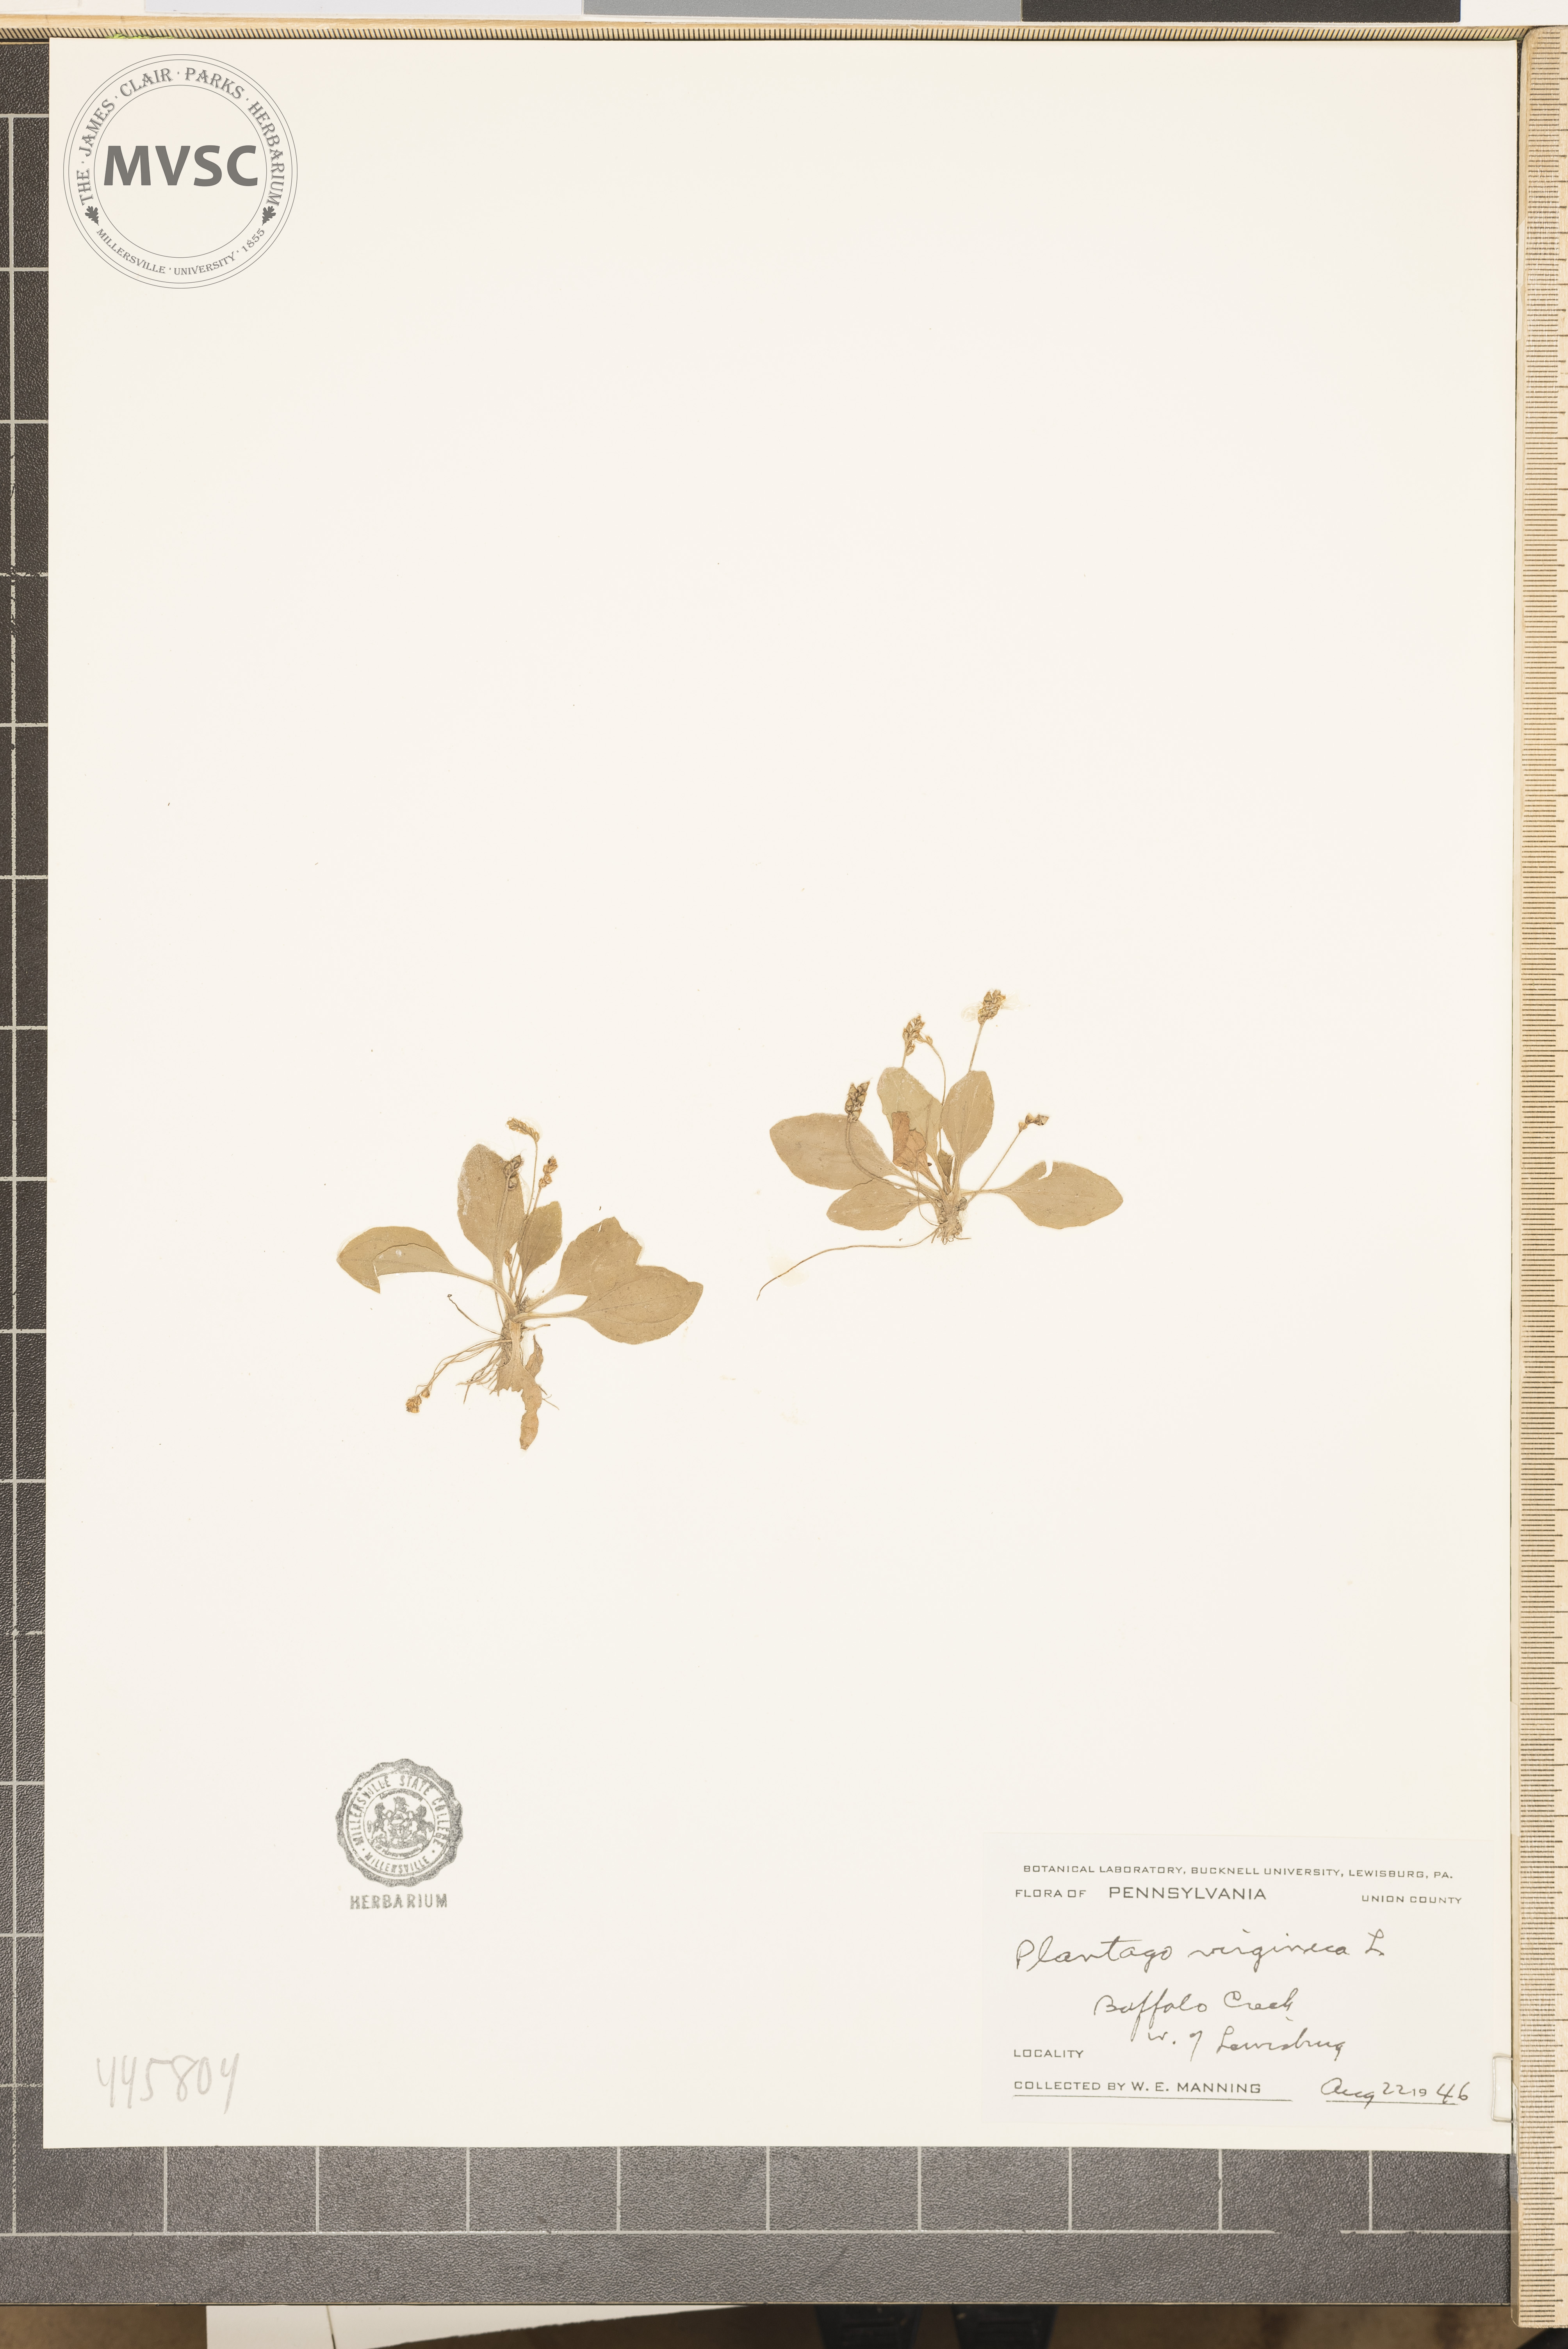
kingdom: Plantae
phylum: Tracheophyta
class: Magnoliopsida
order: Lamiales
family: Plantaginaceae
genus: Plantago
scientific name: Plantago virginica
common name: Hoary plantain
